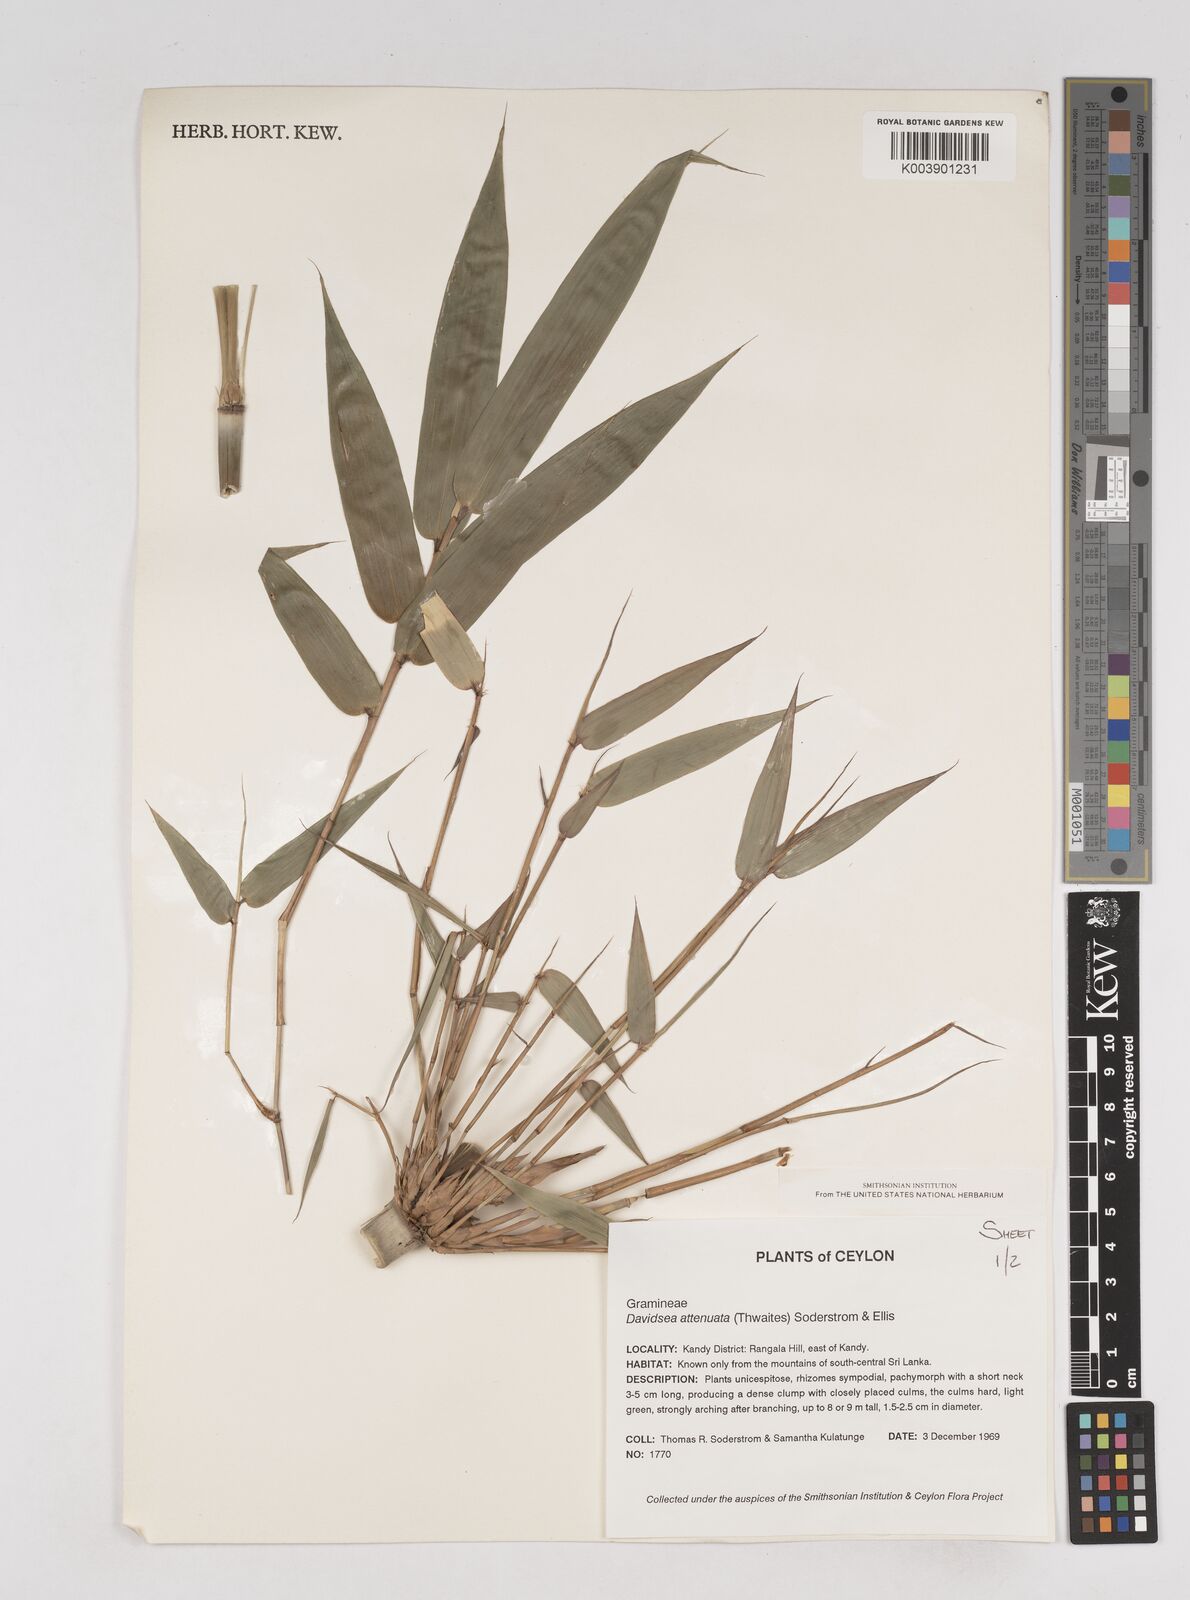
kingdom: Plantae
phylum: Tracheophyta
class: Liliopsida
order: Poales
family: Poaceae
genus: Davidsea
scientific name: Davidsea
